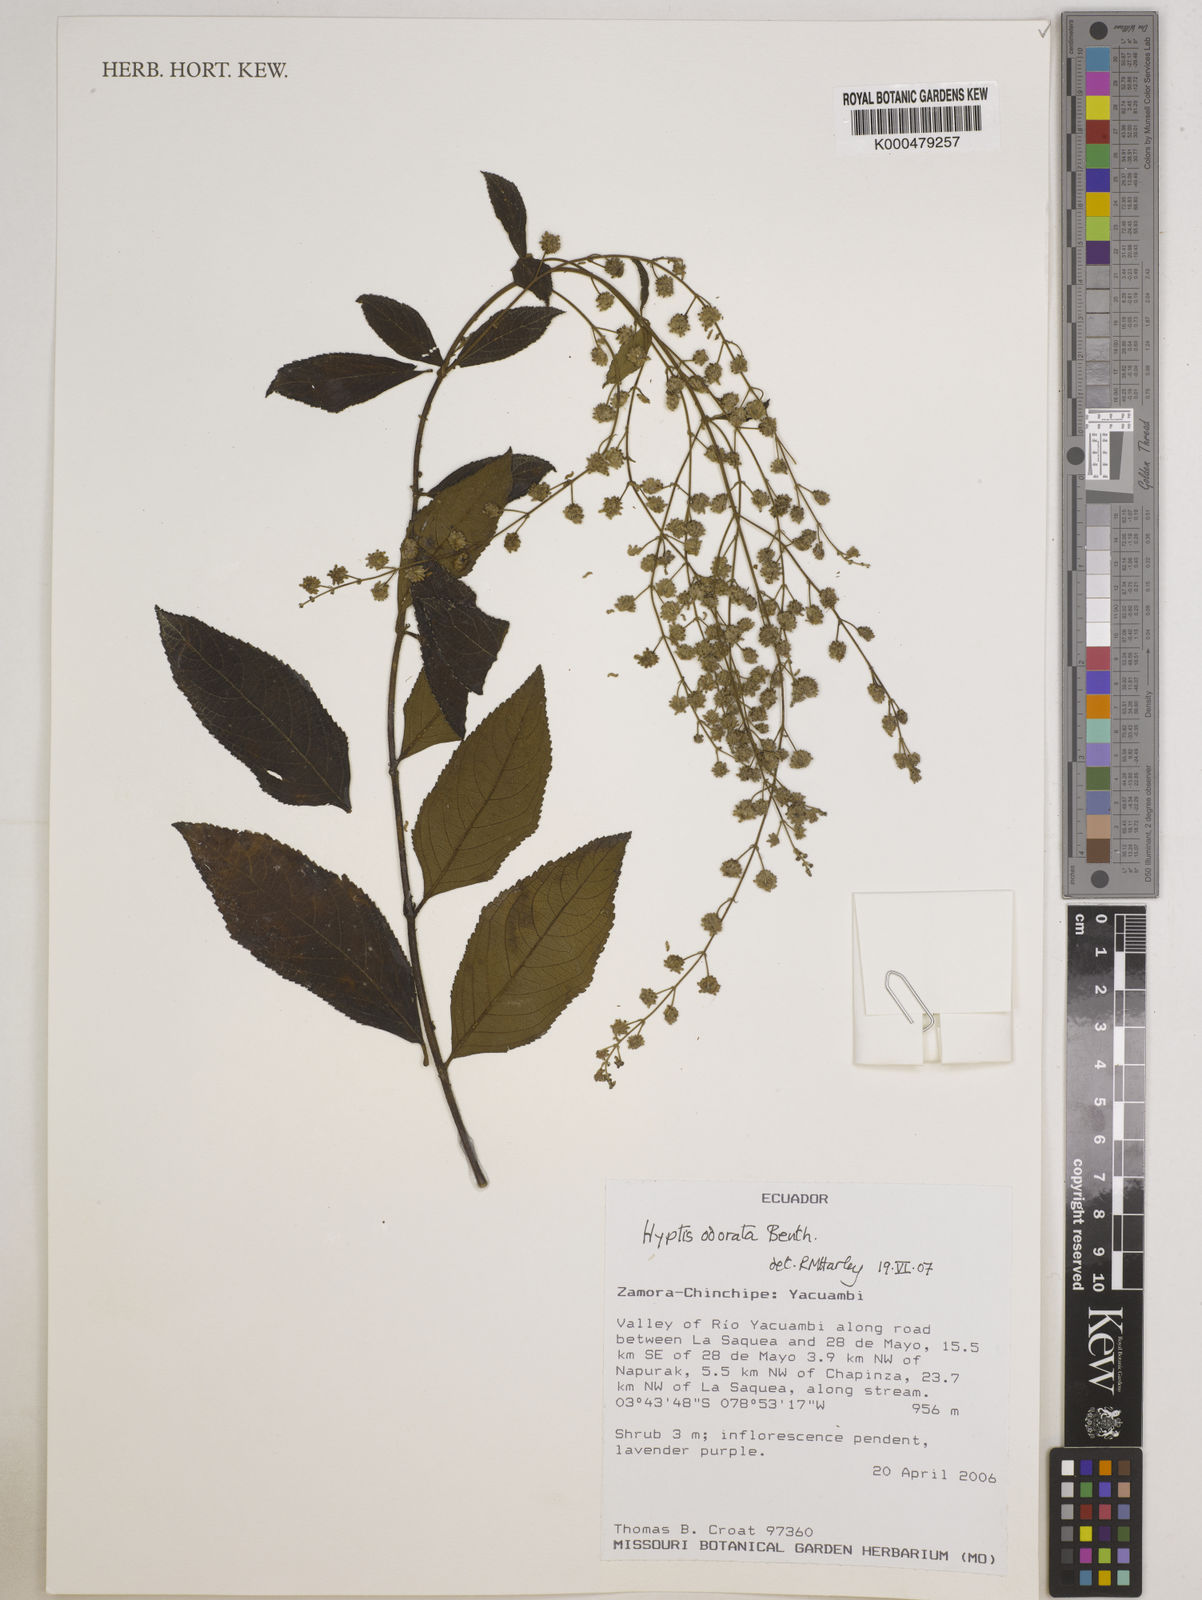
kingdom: Plantae
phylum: Tracheophyta
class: Magnoliopsida
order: Lamiales
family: Lamiaceae
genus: Hyptis
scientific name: Hyptis odorata
